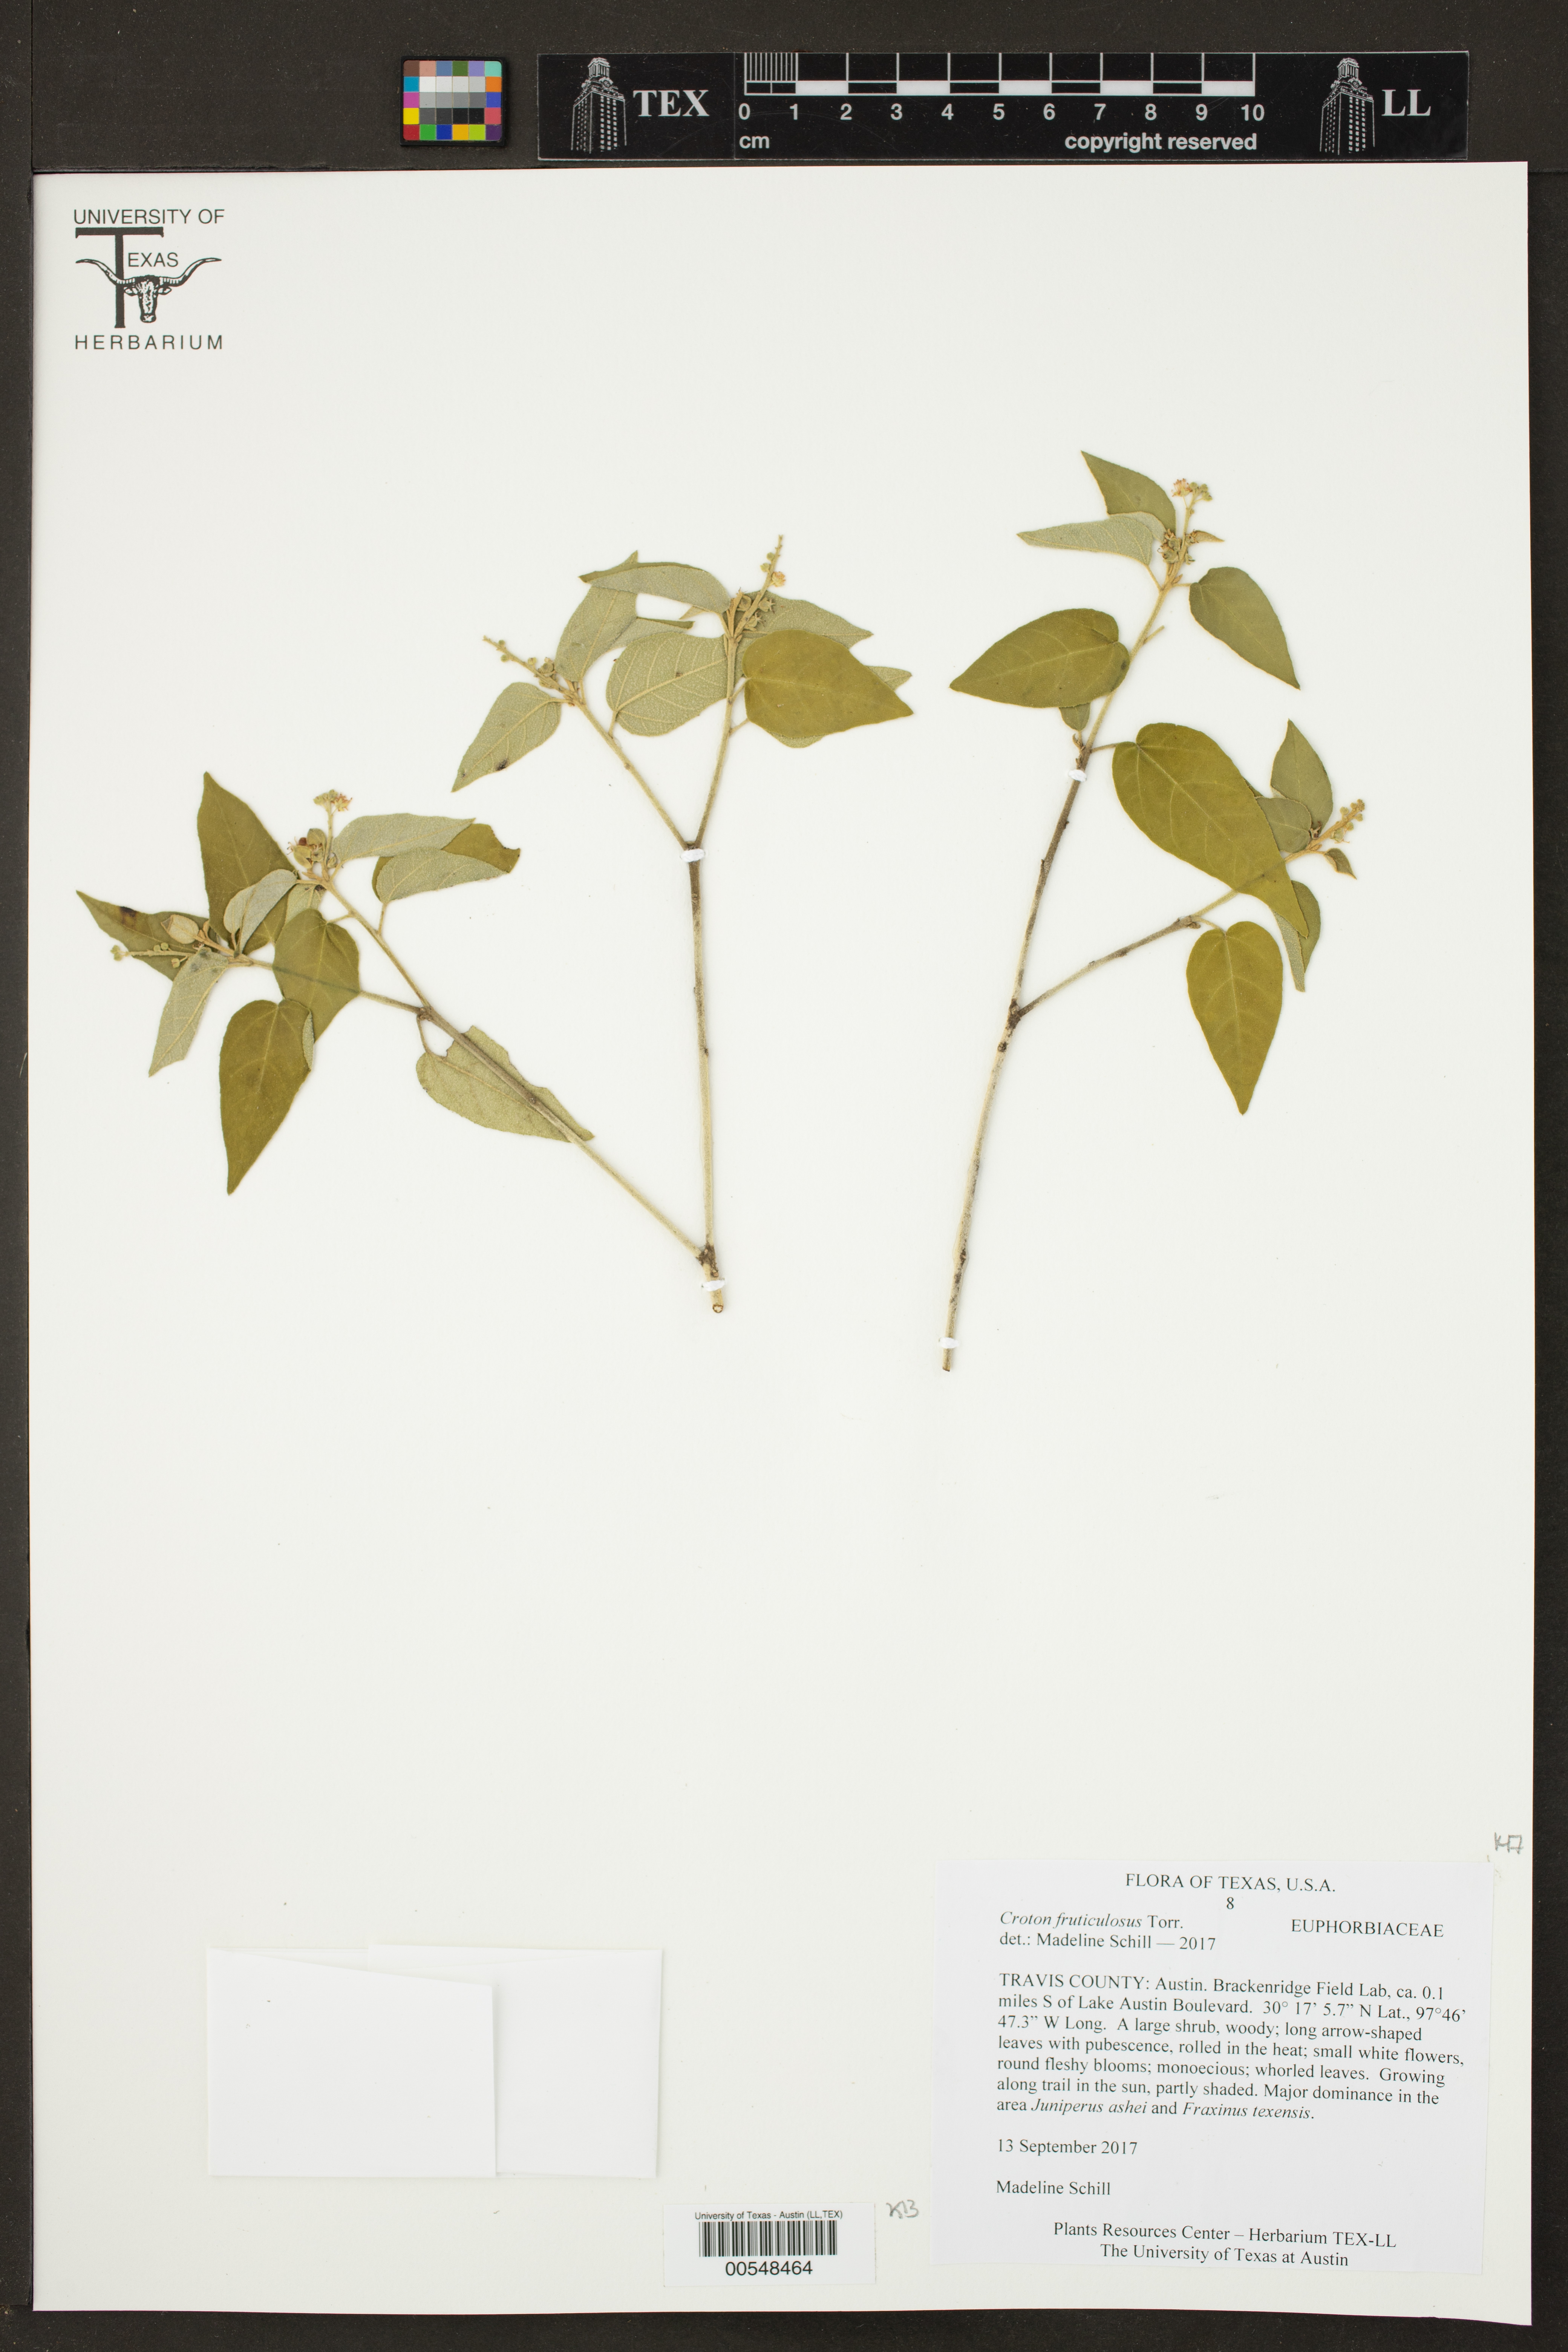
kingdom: Plantae
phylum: Tracheophyta
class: Magnoliopsida
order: Malpighiales
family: Euphorbiaceae
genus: Croton
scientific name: Croton fruticulosus
